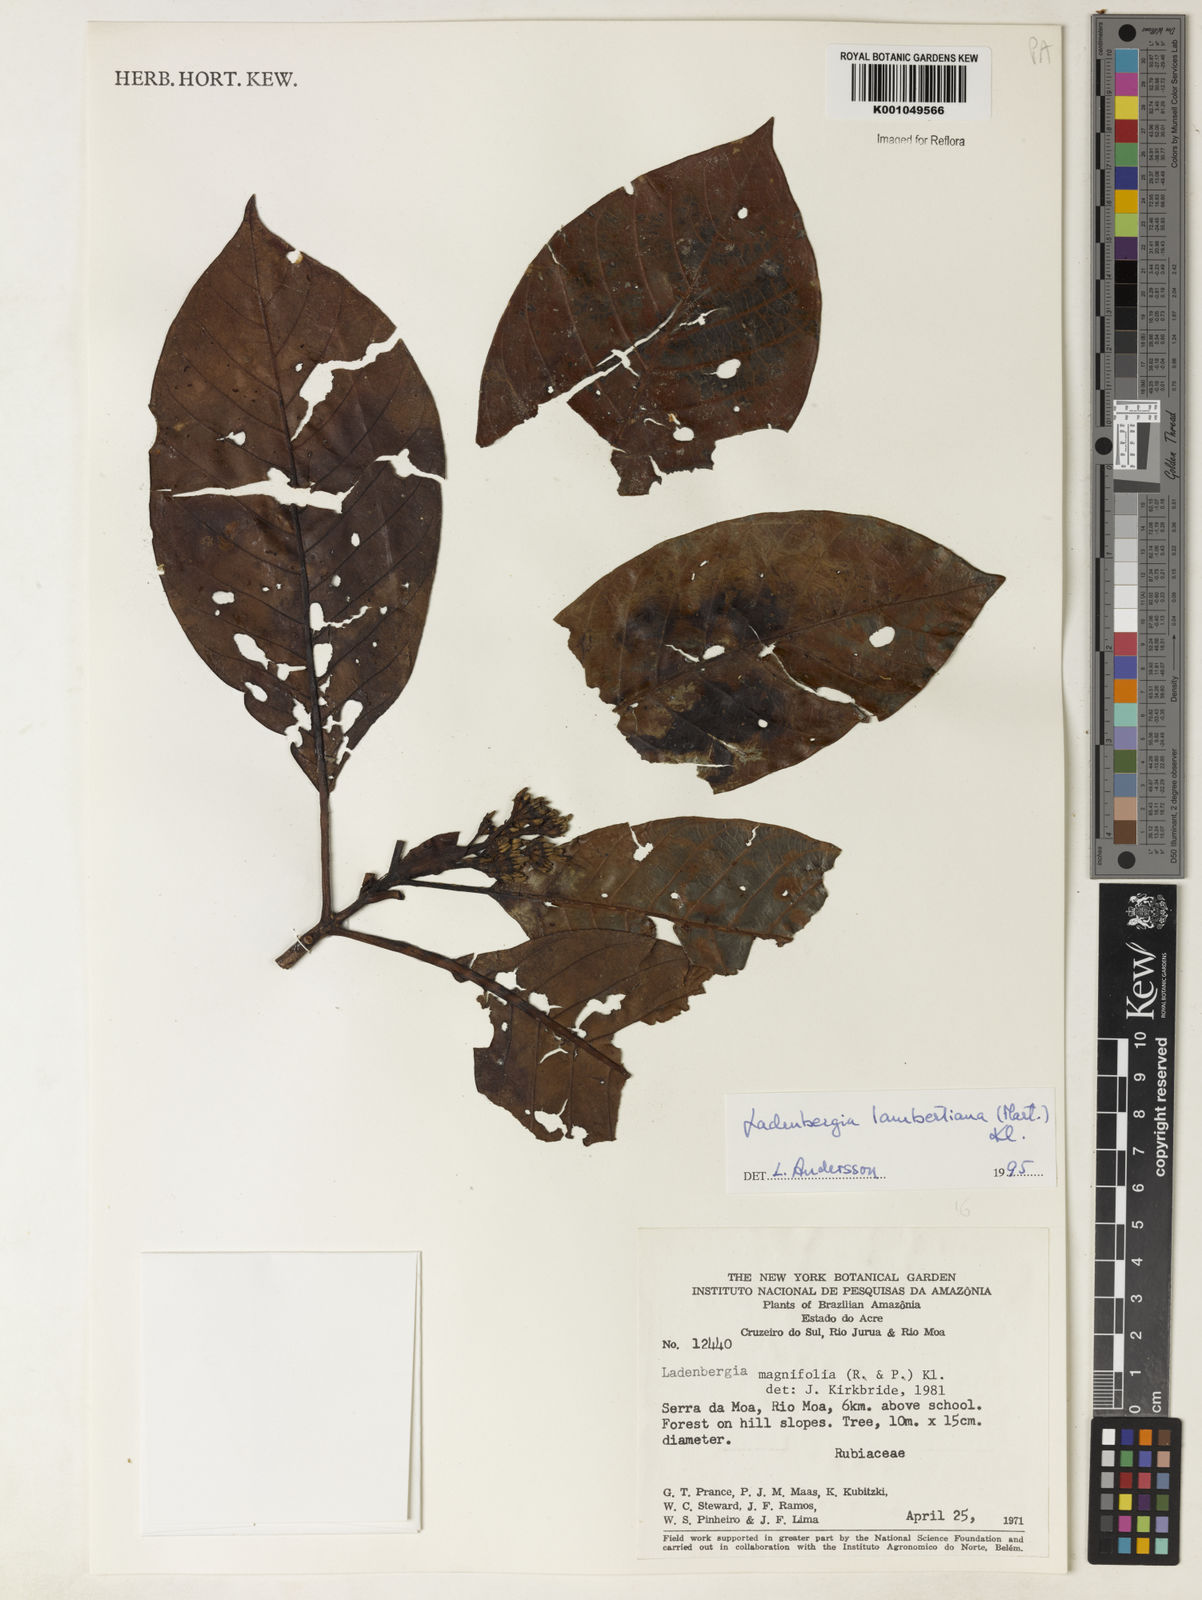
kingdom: Plantae
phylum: Tracheophyta
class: Magnoliopsida
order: Gentianales
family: Rubiaceae
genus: Ladenbergia
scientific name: Ladenbergia lambertiana
